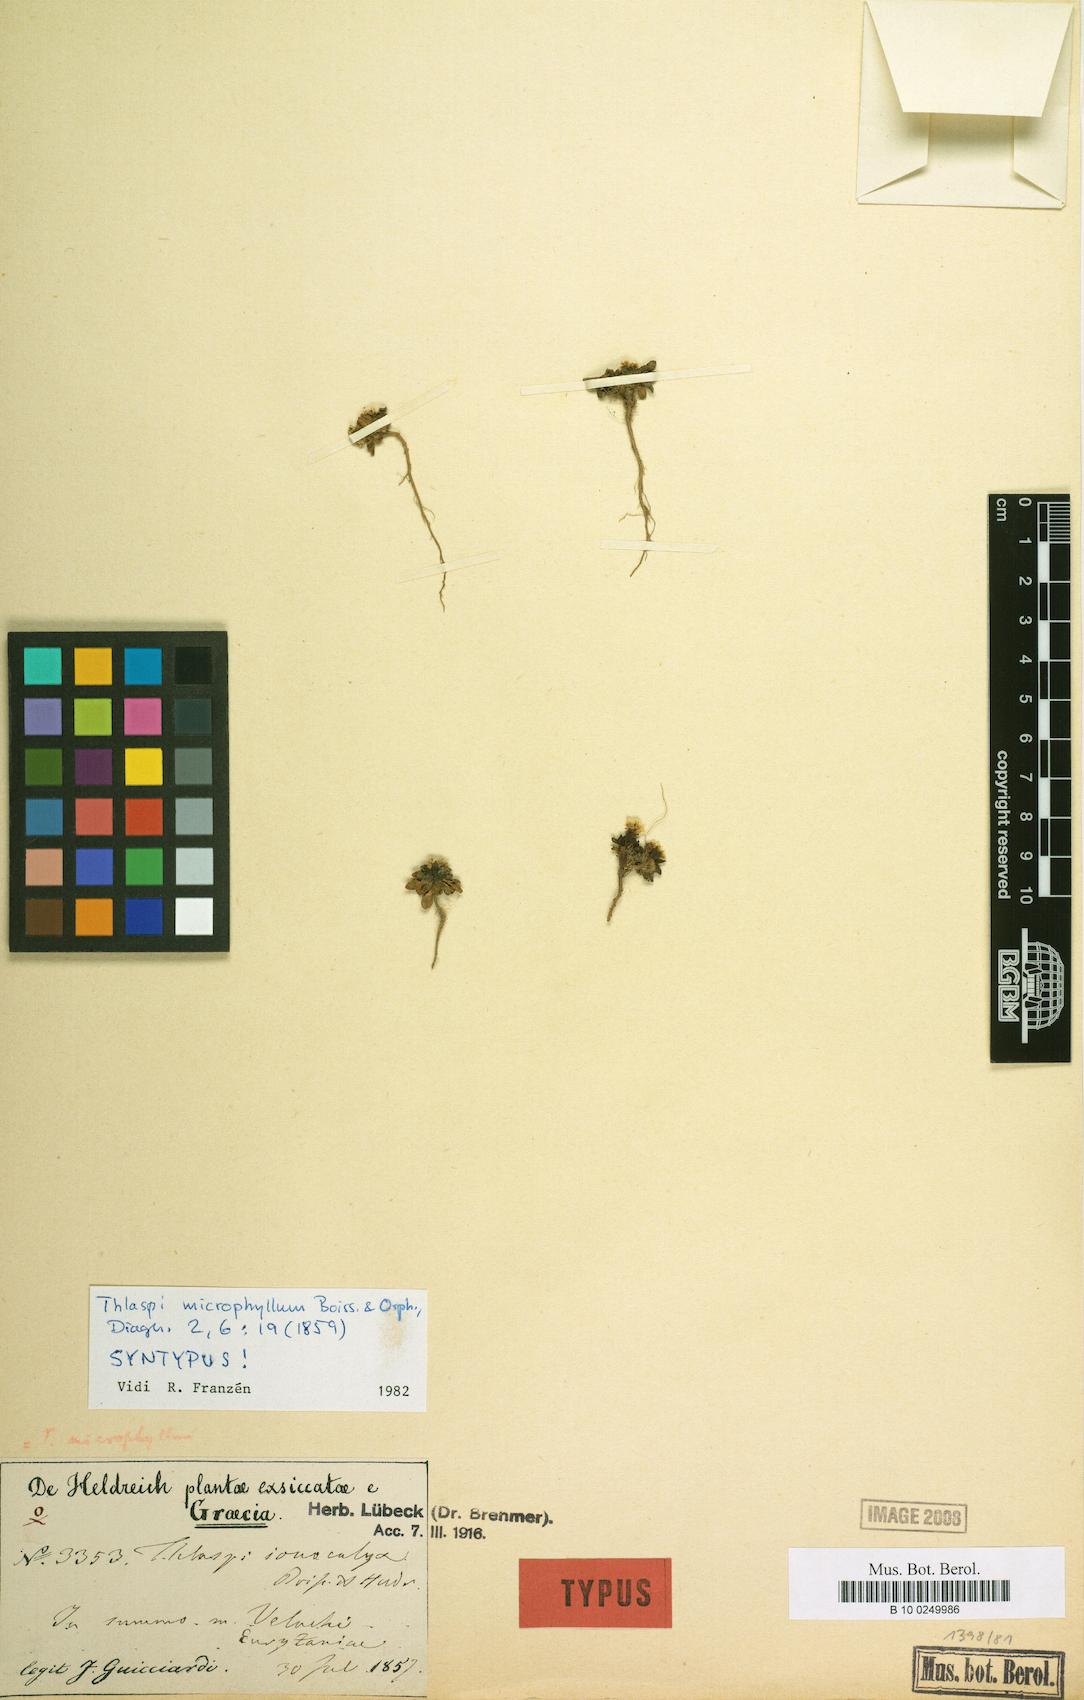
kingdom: Plantae
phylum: Tracheophyta
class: Magnoliopsida
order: Brassicales
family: Brassicaceae
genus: Noccaea
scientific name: Noccaea microphylla
